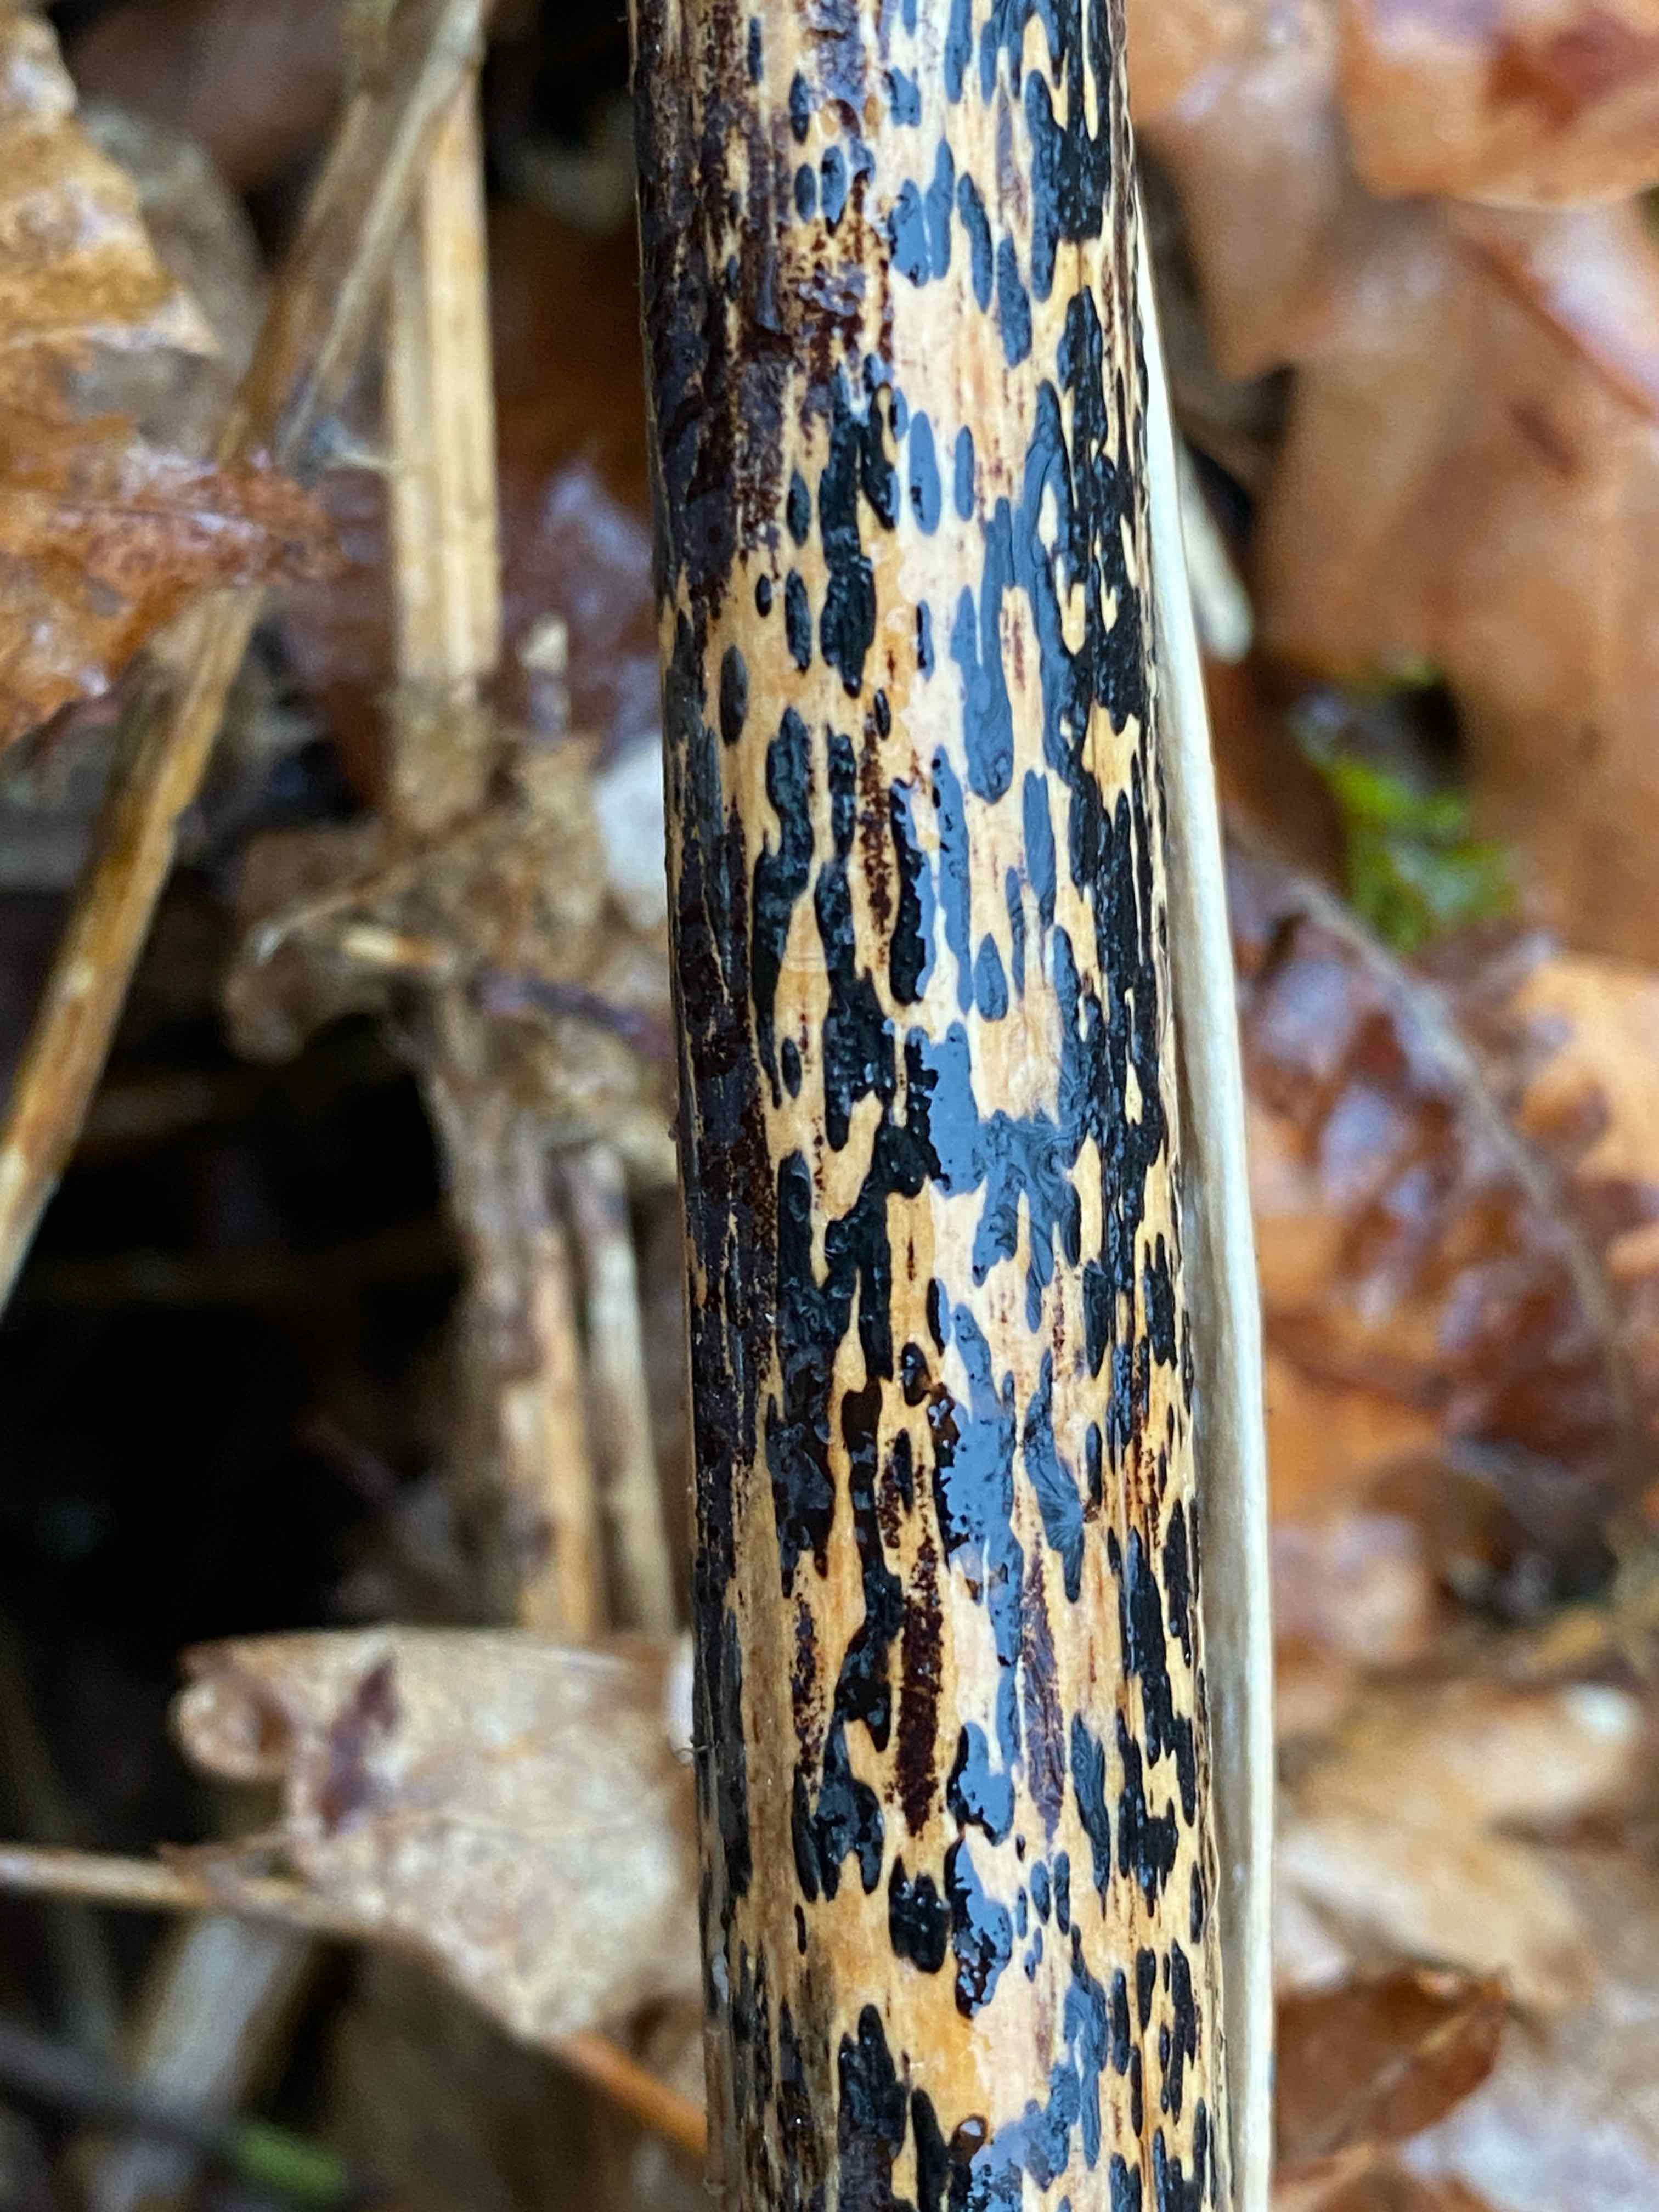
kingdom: Fungi
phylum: Ascomycota
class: Dothideomycetes
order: Pleosporales
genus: Rhopographus
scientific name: Rhopographus filicinus
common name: Bracken map
